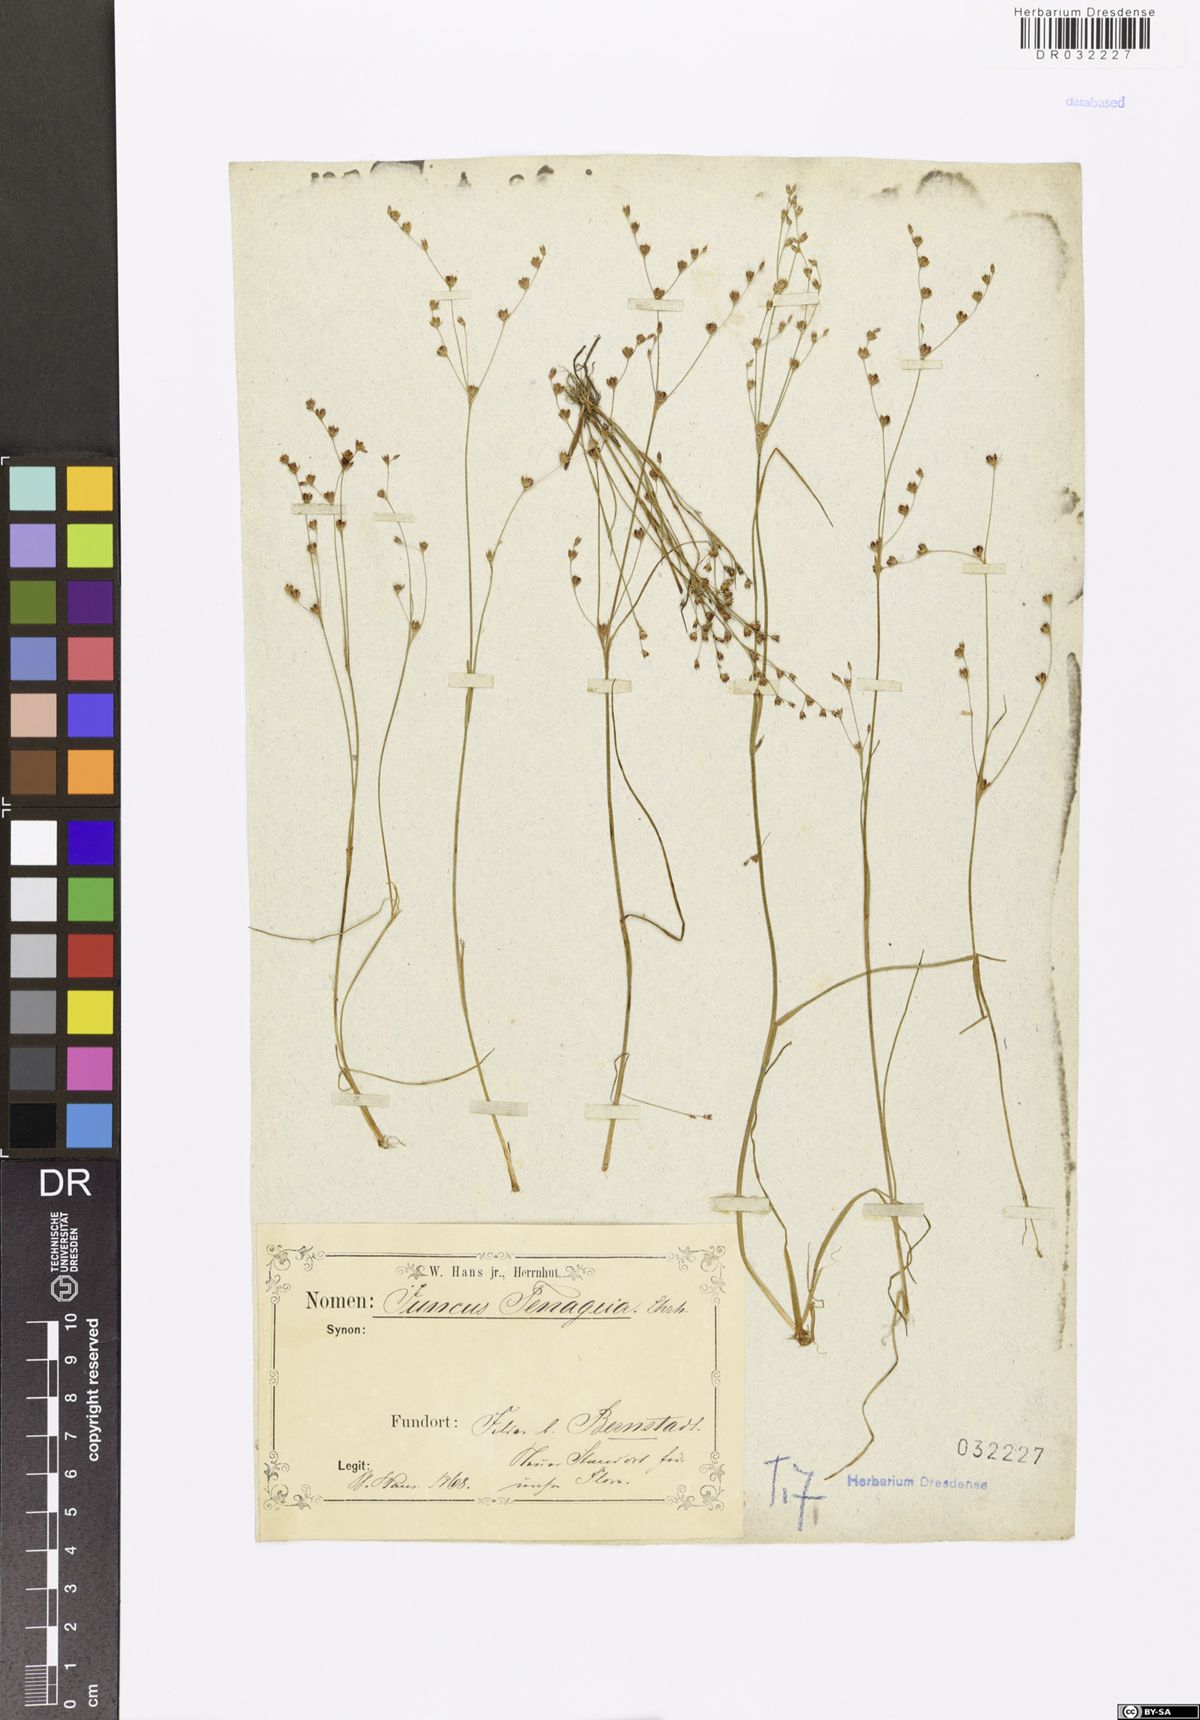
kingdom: Plantae
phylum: Tracheophyta
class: Liliopsida
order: Poales
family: Juncaceae
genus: Juncus
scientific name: Juncus tenageia
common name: Sand rush
